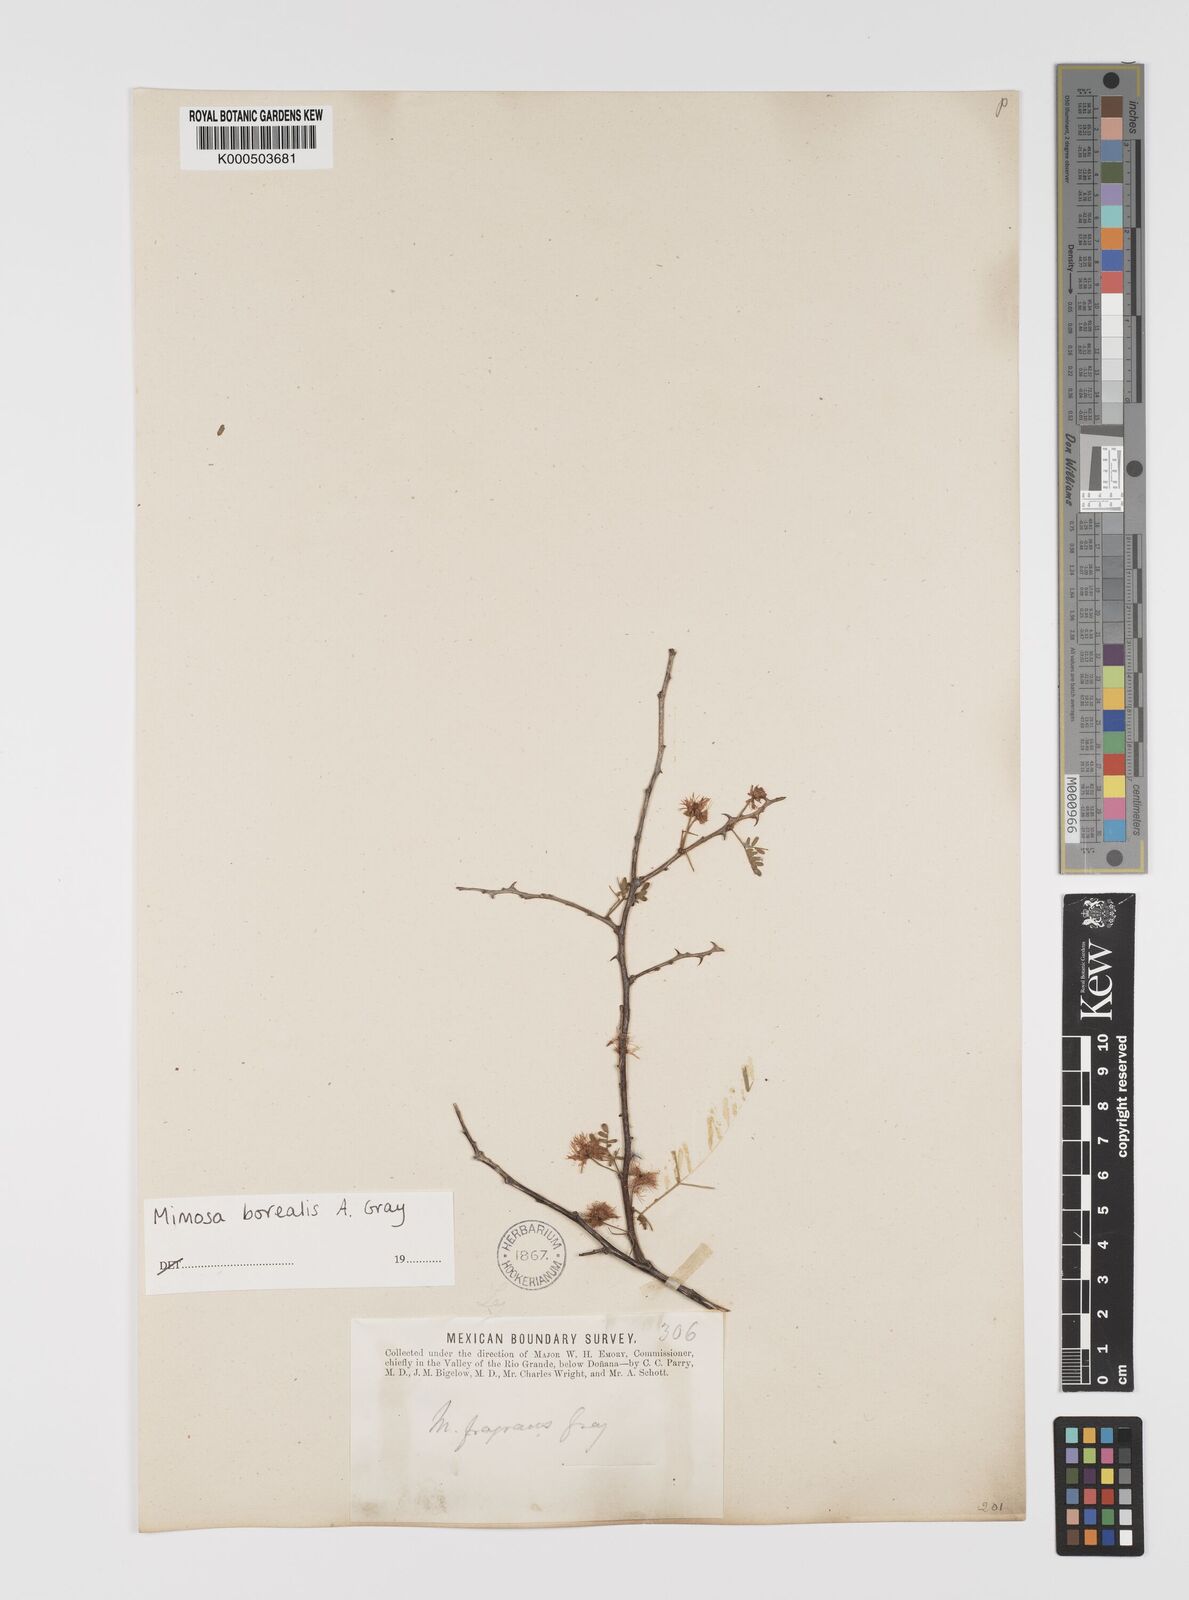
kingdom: Plantae
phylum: Tracheophyta
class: Magnoliopsida
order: Fabales
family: Fabaceae
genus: Mimosa
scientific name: Mimosa borealis
